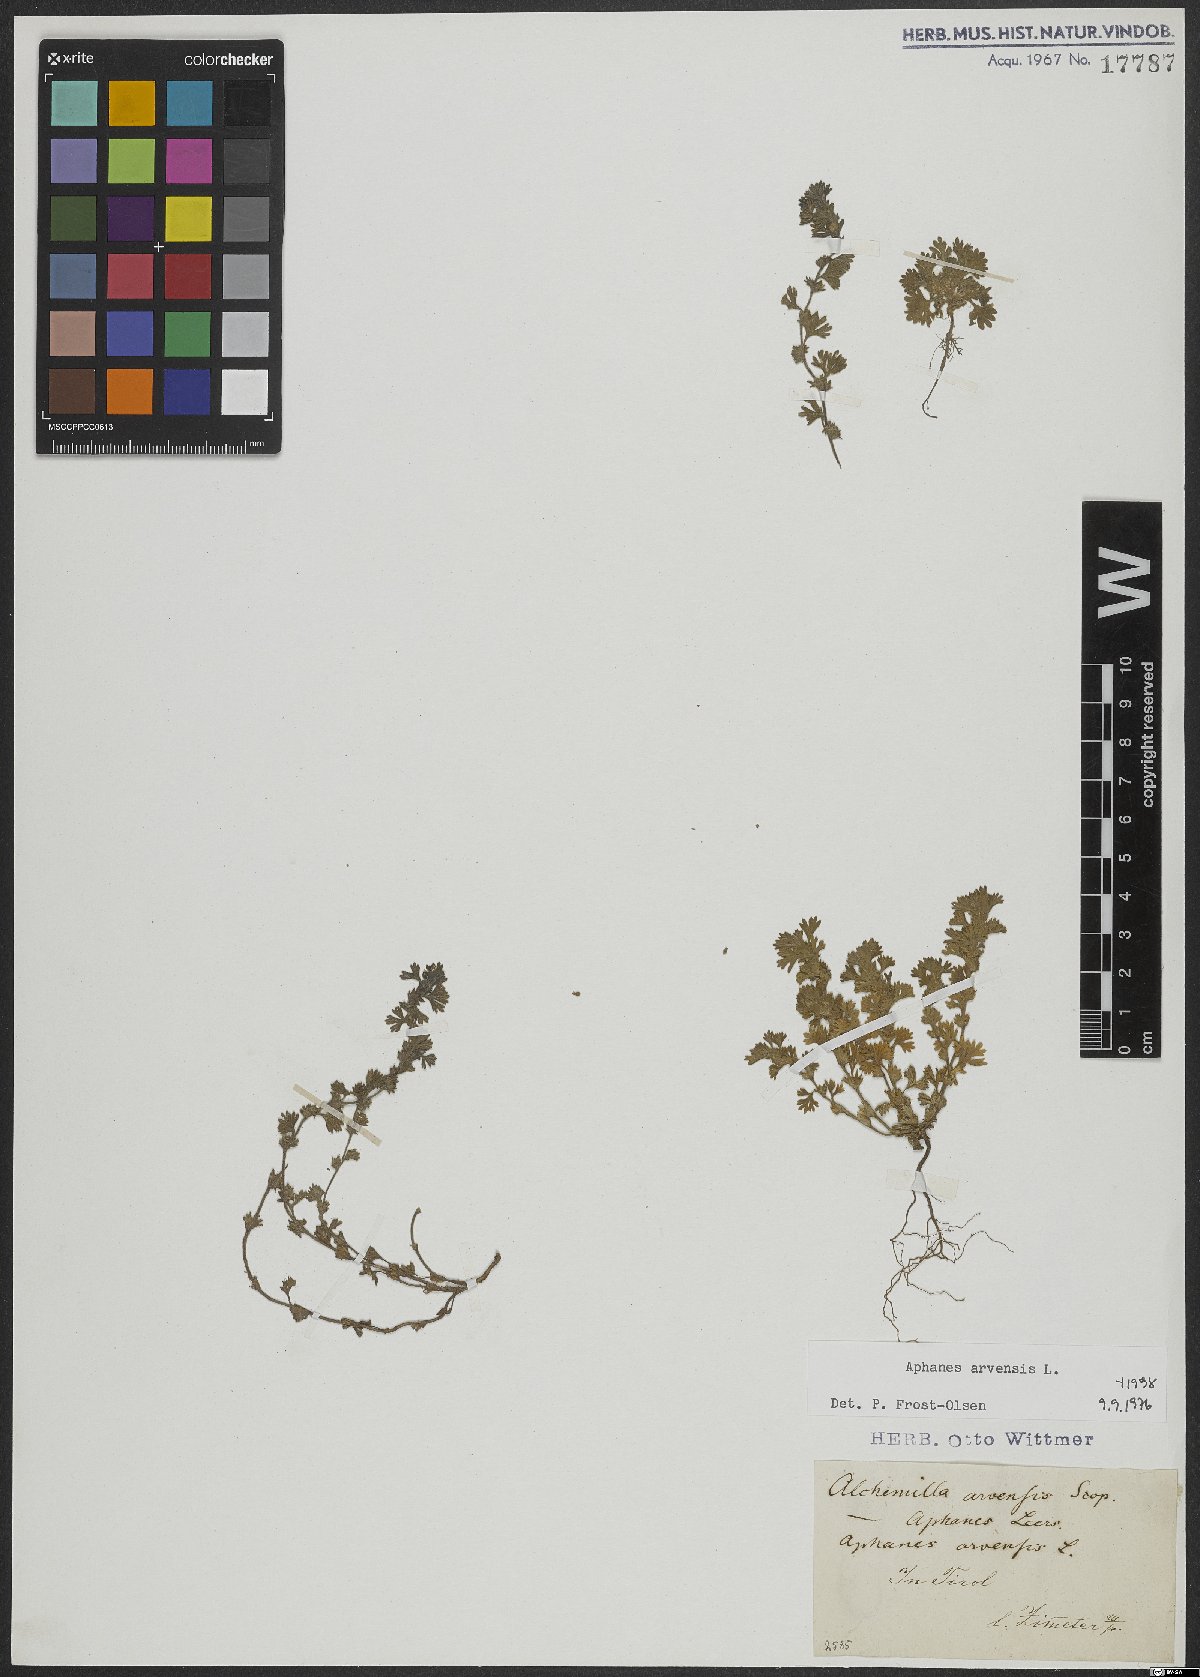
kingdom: Plantae
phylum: Tracheophyta
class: Magnoliopsida
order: Rosales
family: Rosaceae
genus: Aphanes
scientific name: Aphanes arvensis
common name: Parsley-piert
